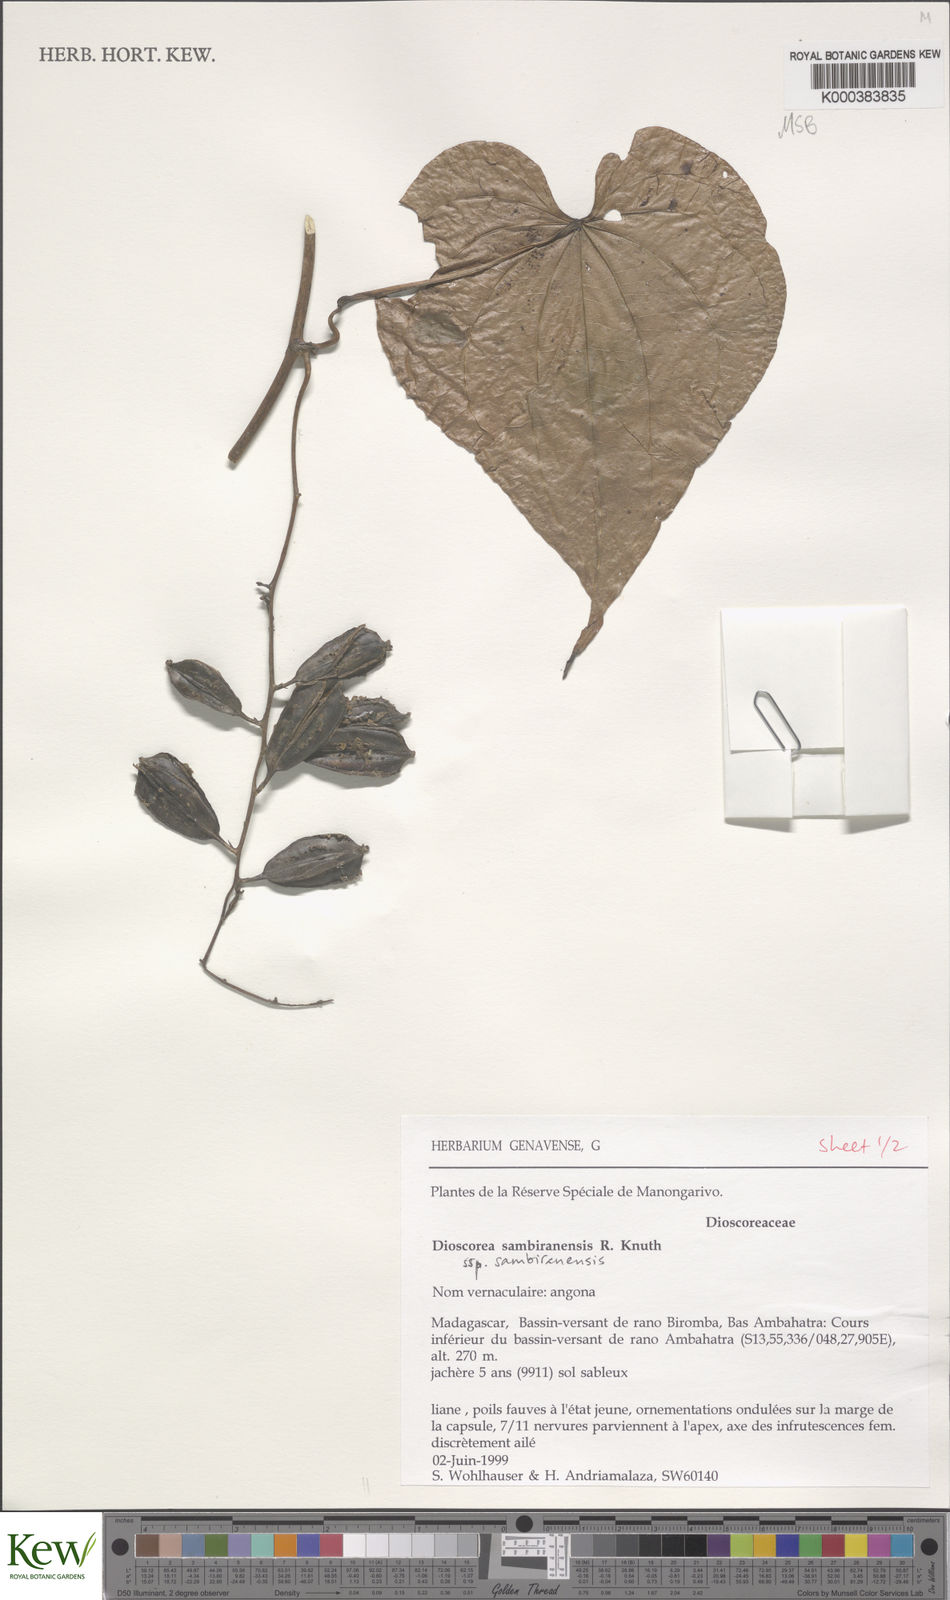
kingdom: Plantae
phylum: Tracheophyta
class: Liliopsida
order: Dioscoreales
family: Dioscoreaceae
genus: Dioscorea
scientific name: Dioscorea sambiranensis
